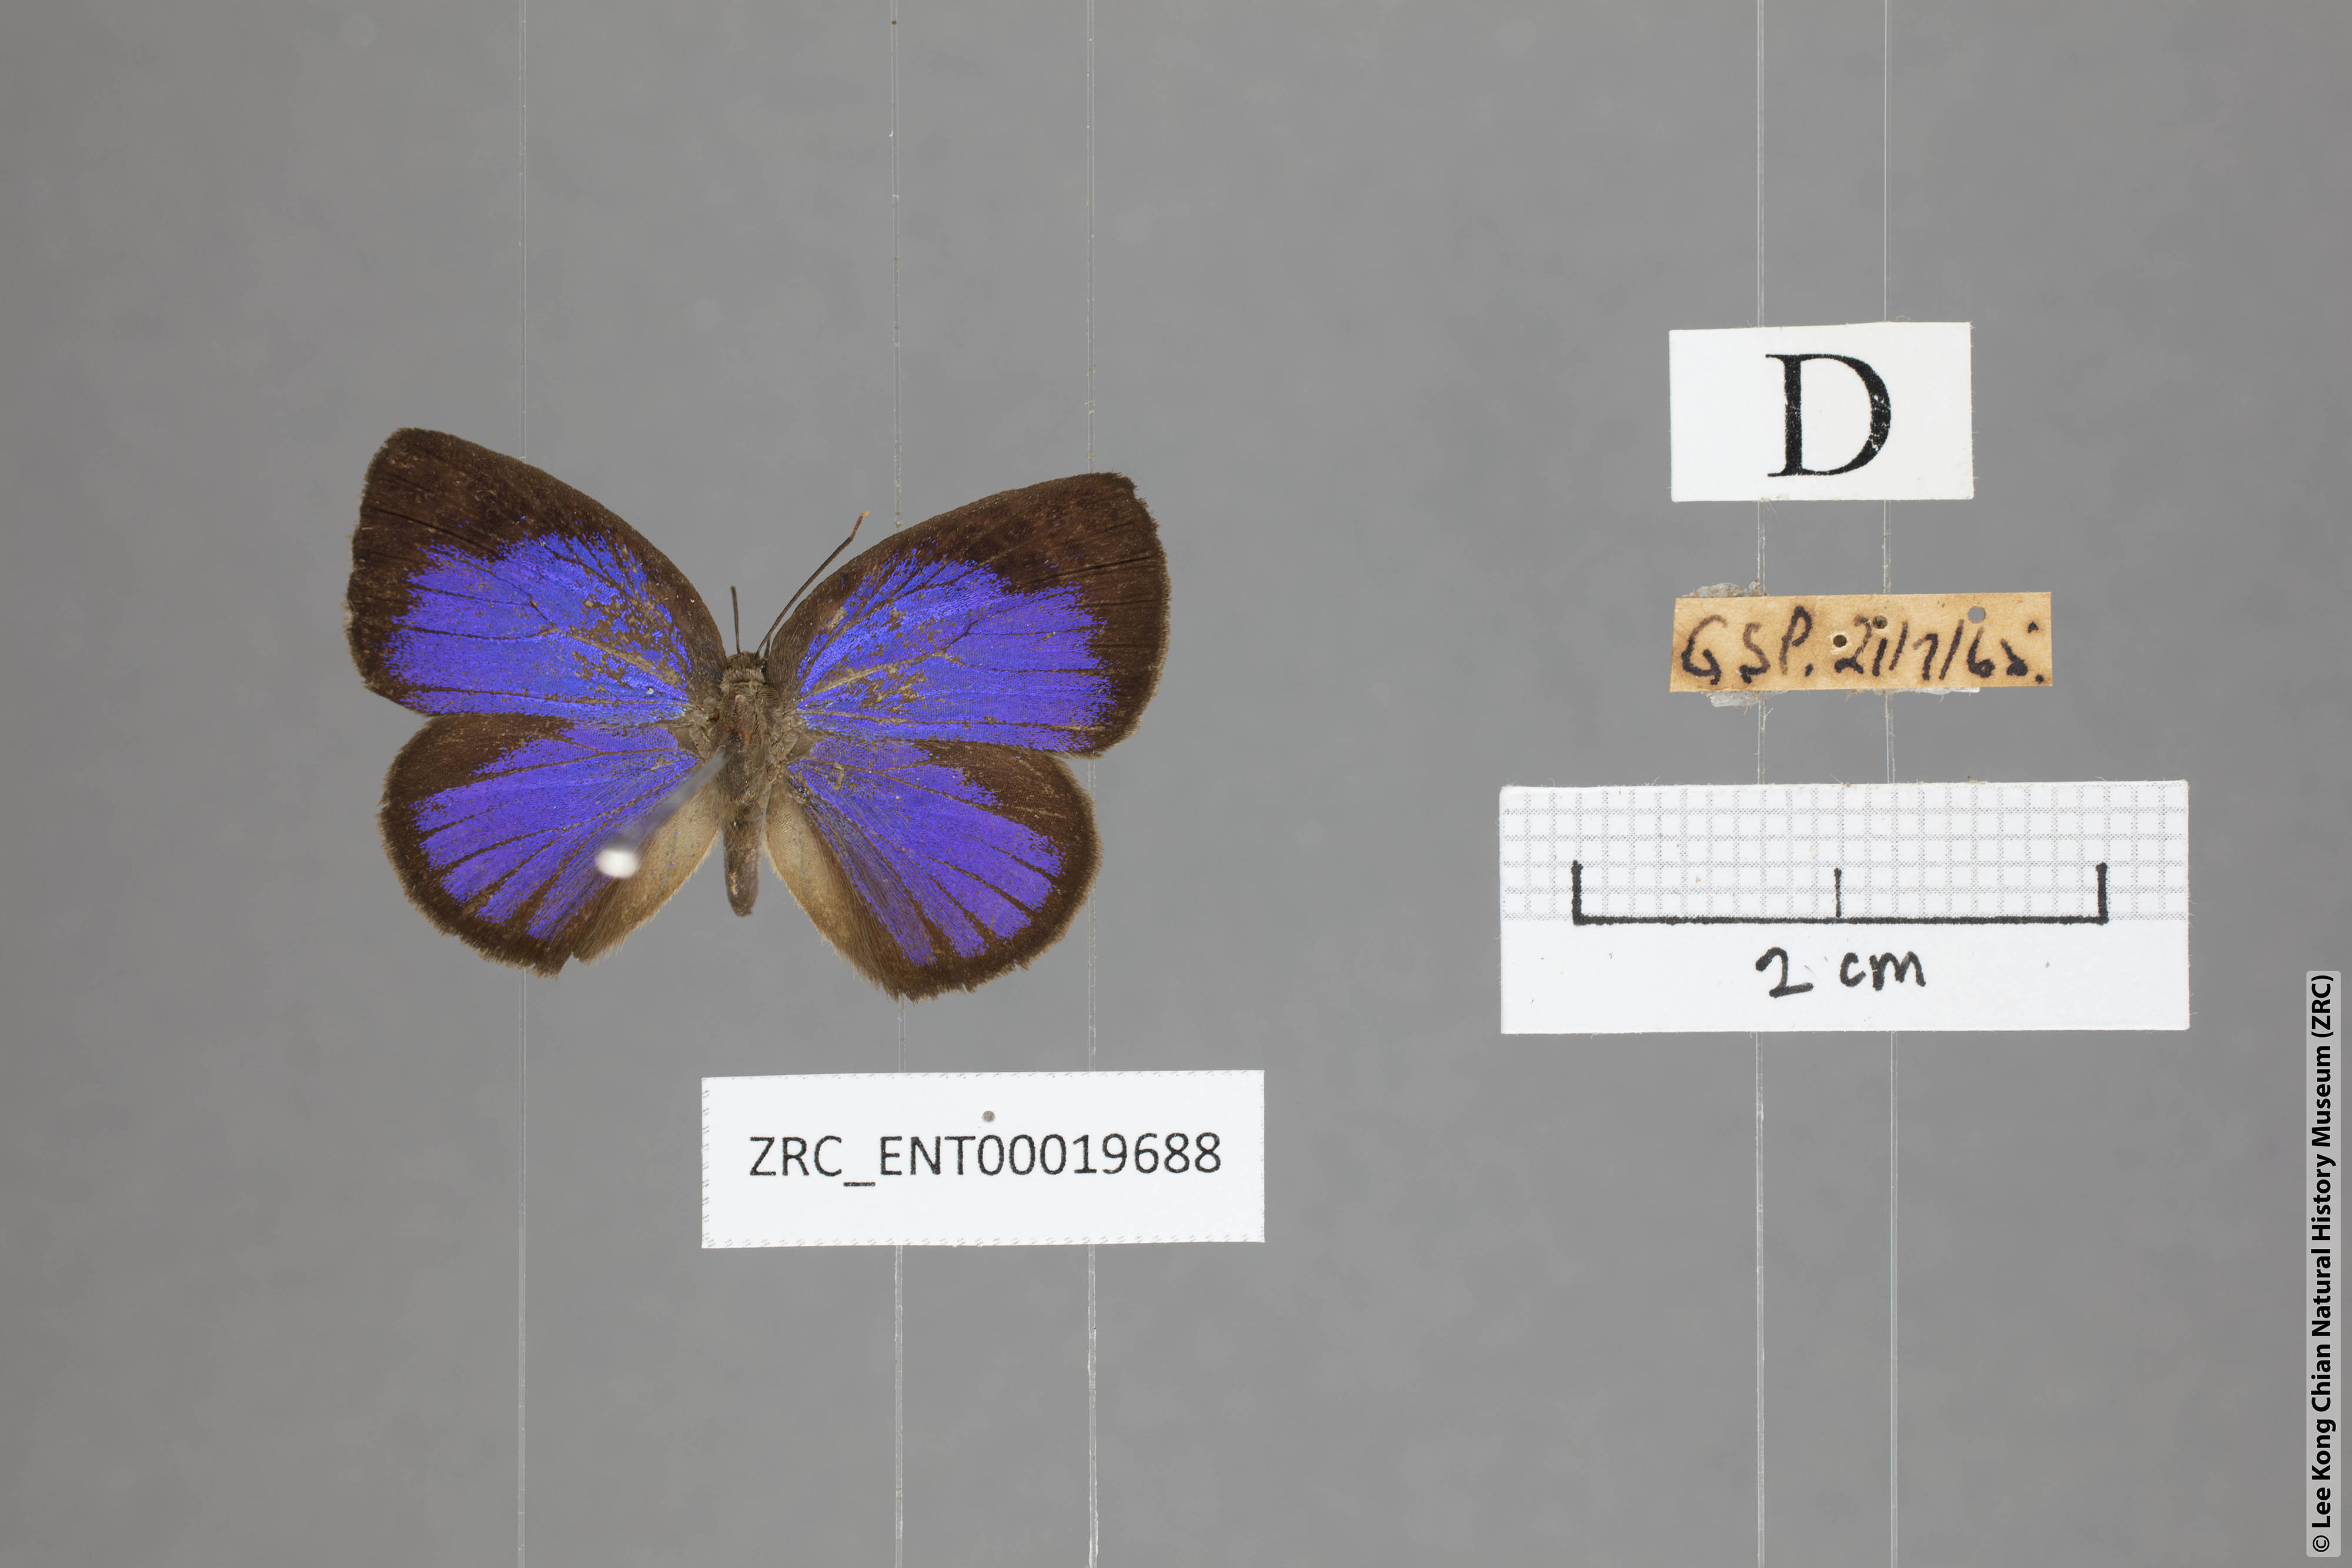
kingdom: Animalia
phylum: Arthropoda
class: Insecta
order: Lepidoptera
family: Lycaenidae
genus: Arhopala
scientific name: Arhopala moorei
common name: Moore's oakblue
